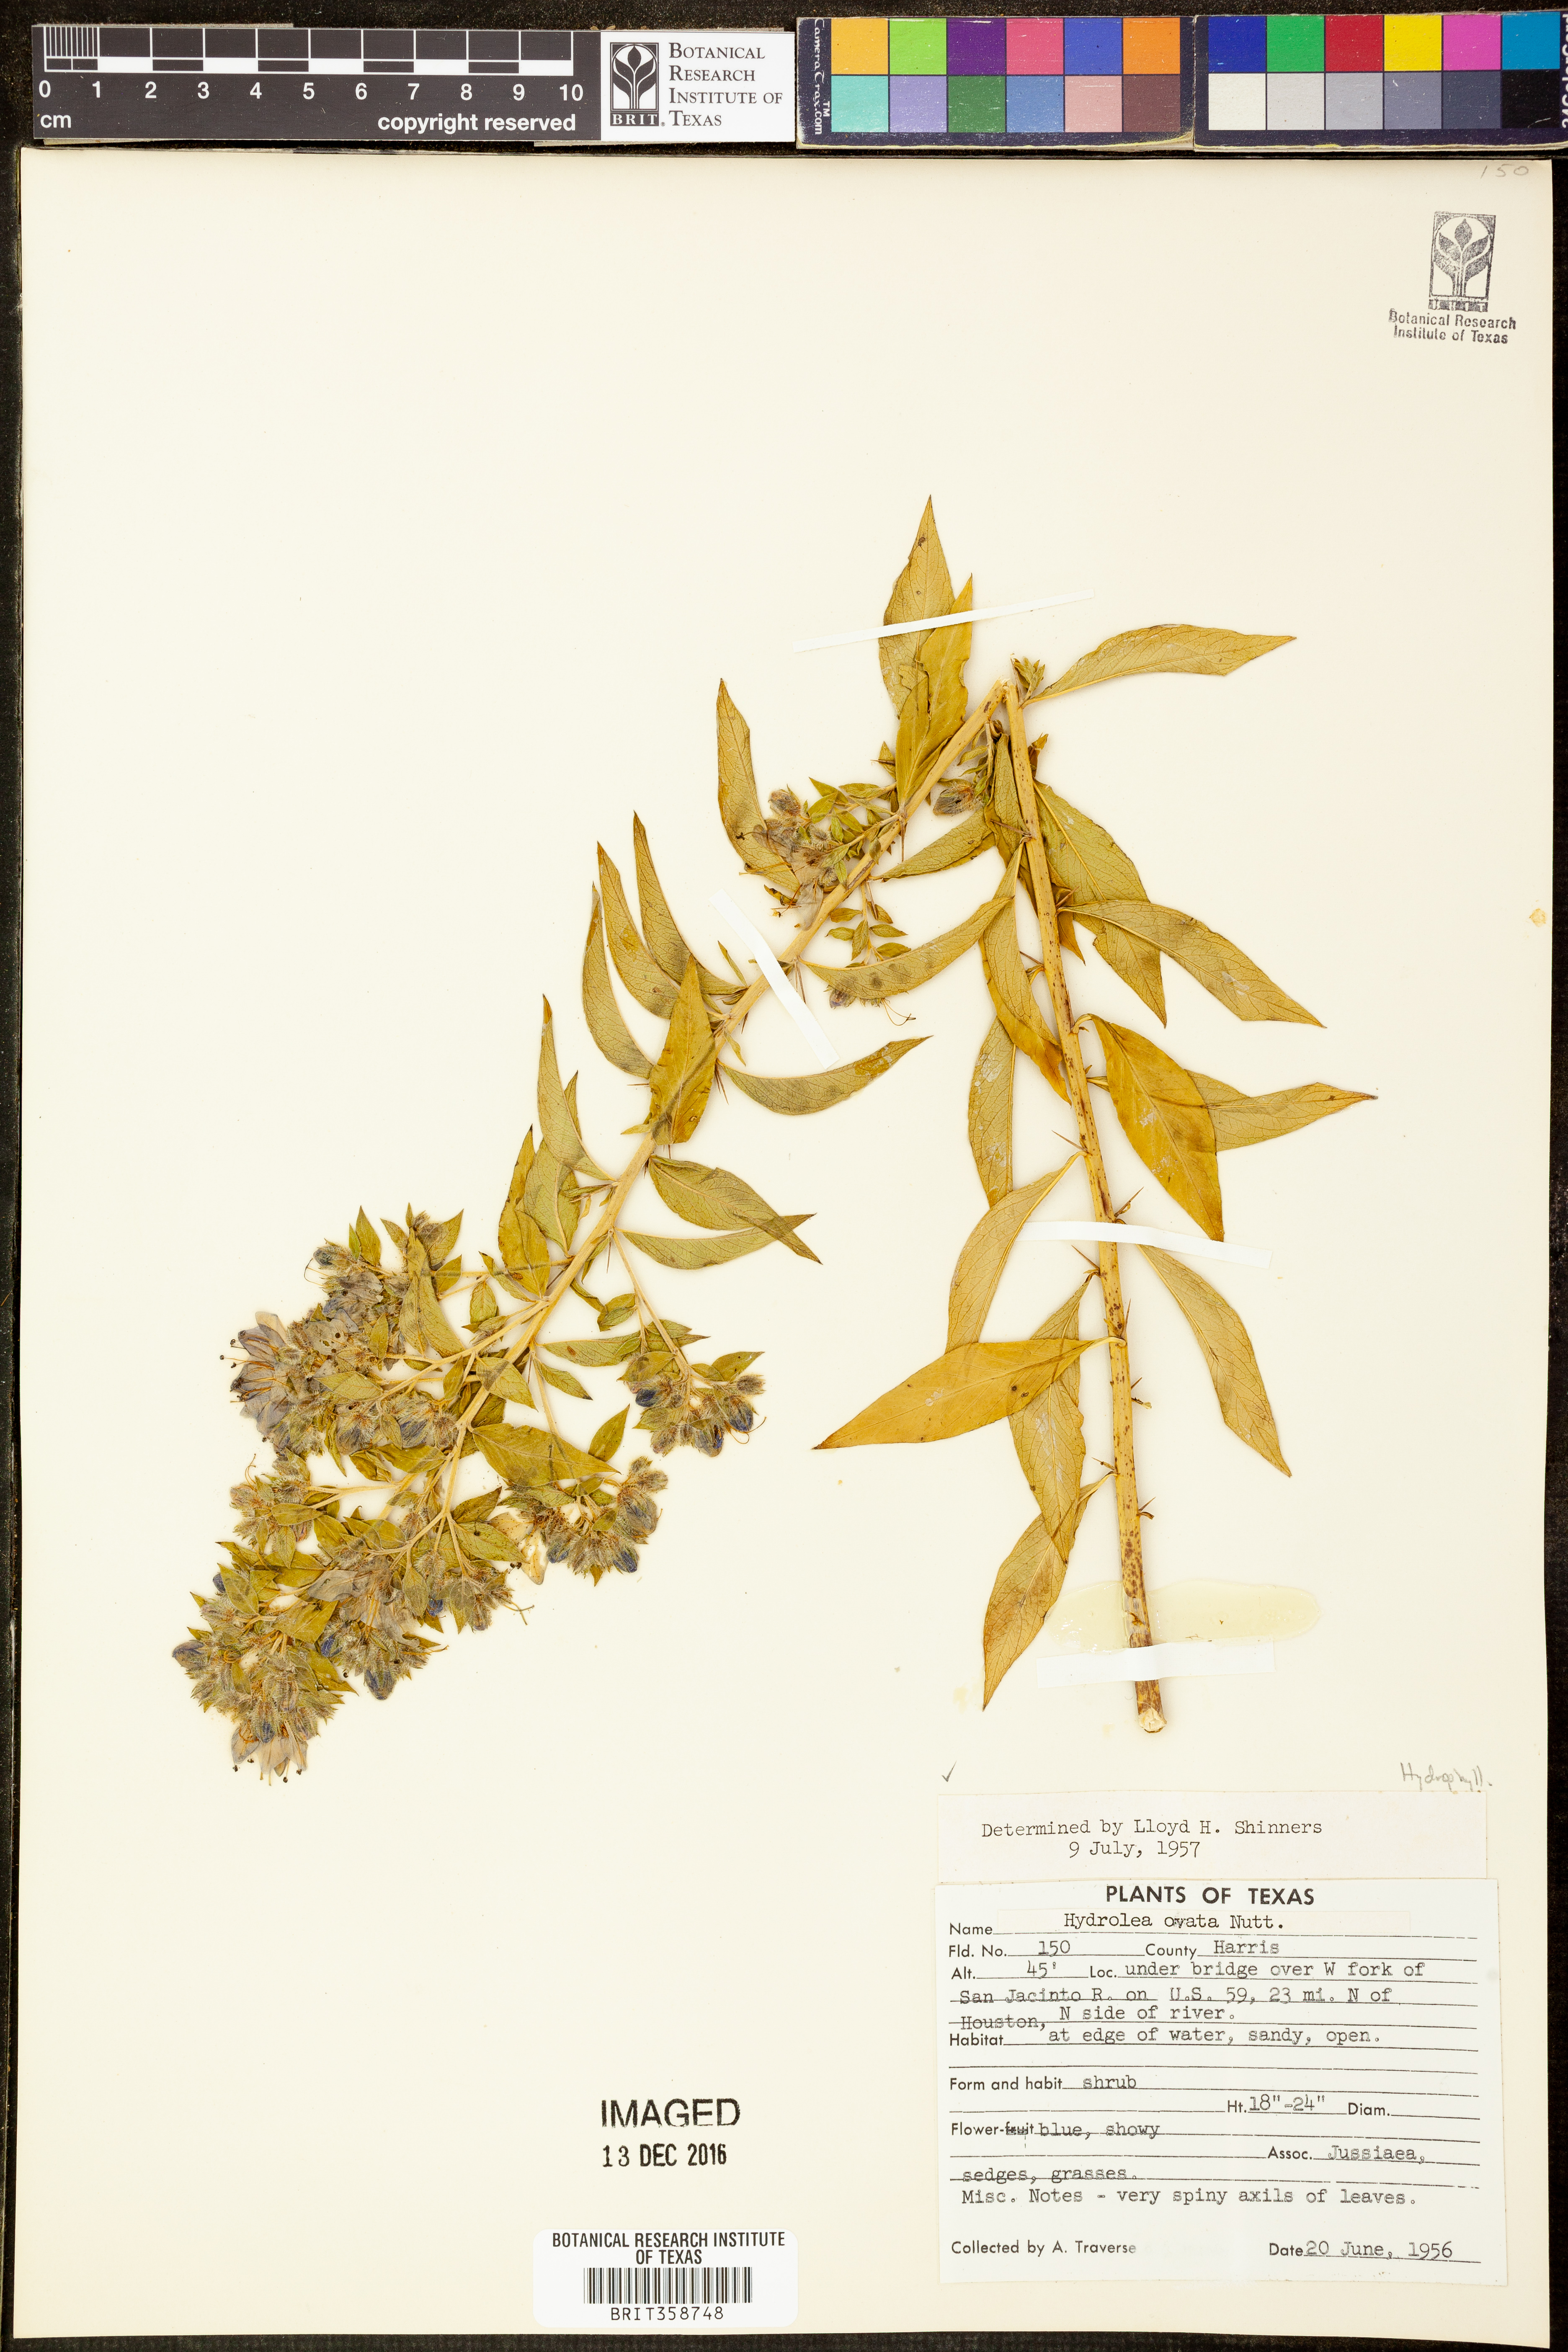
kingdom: Plantae
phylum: Tracheophyta
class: Magnoliopsida
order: Solanales
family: Hydroleaceae
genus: Hydrolea
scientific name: Hydrolea ovata
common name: Ovate false fiddleleaf
